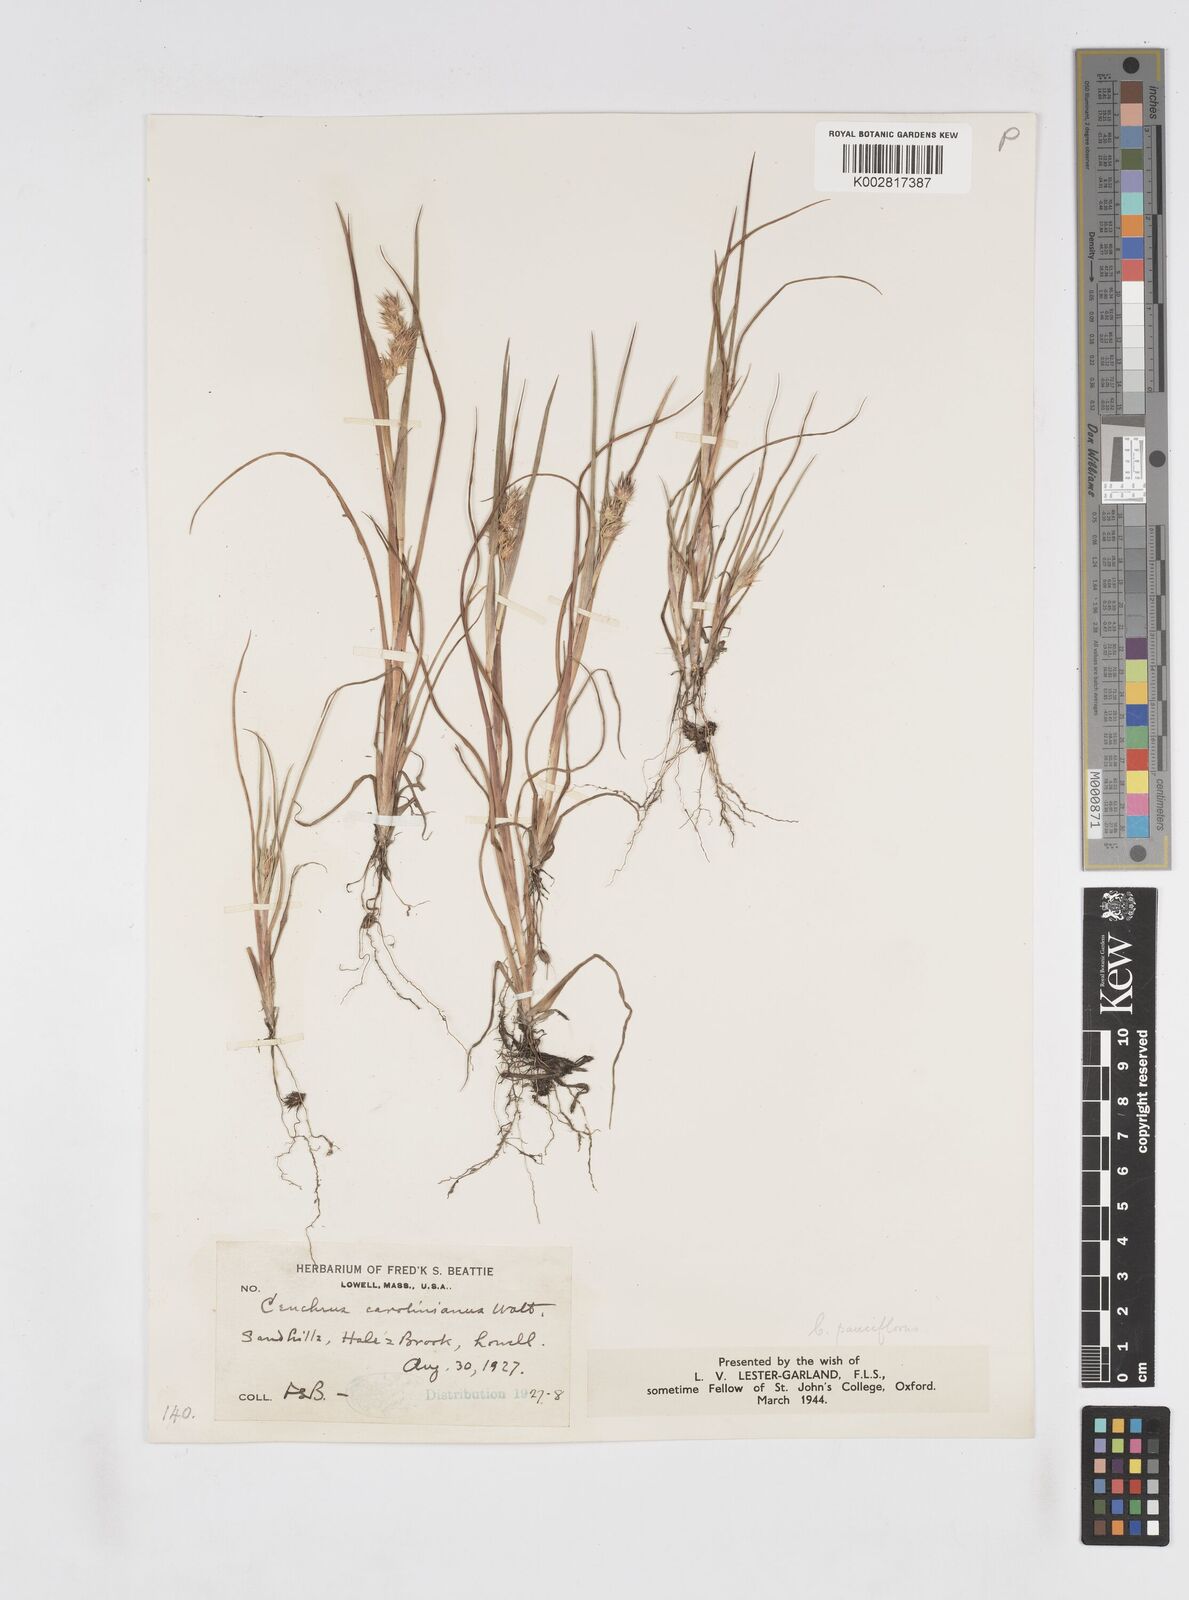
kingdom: Plantae
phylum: Tracheophyta
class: Liliopsida
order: Poales
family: Poaceae
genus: Cenchrus
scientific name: Cenchrus longispinus
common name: Mat sandbur
